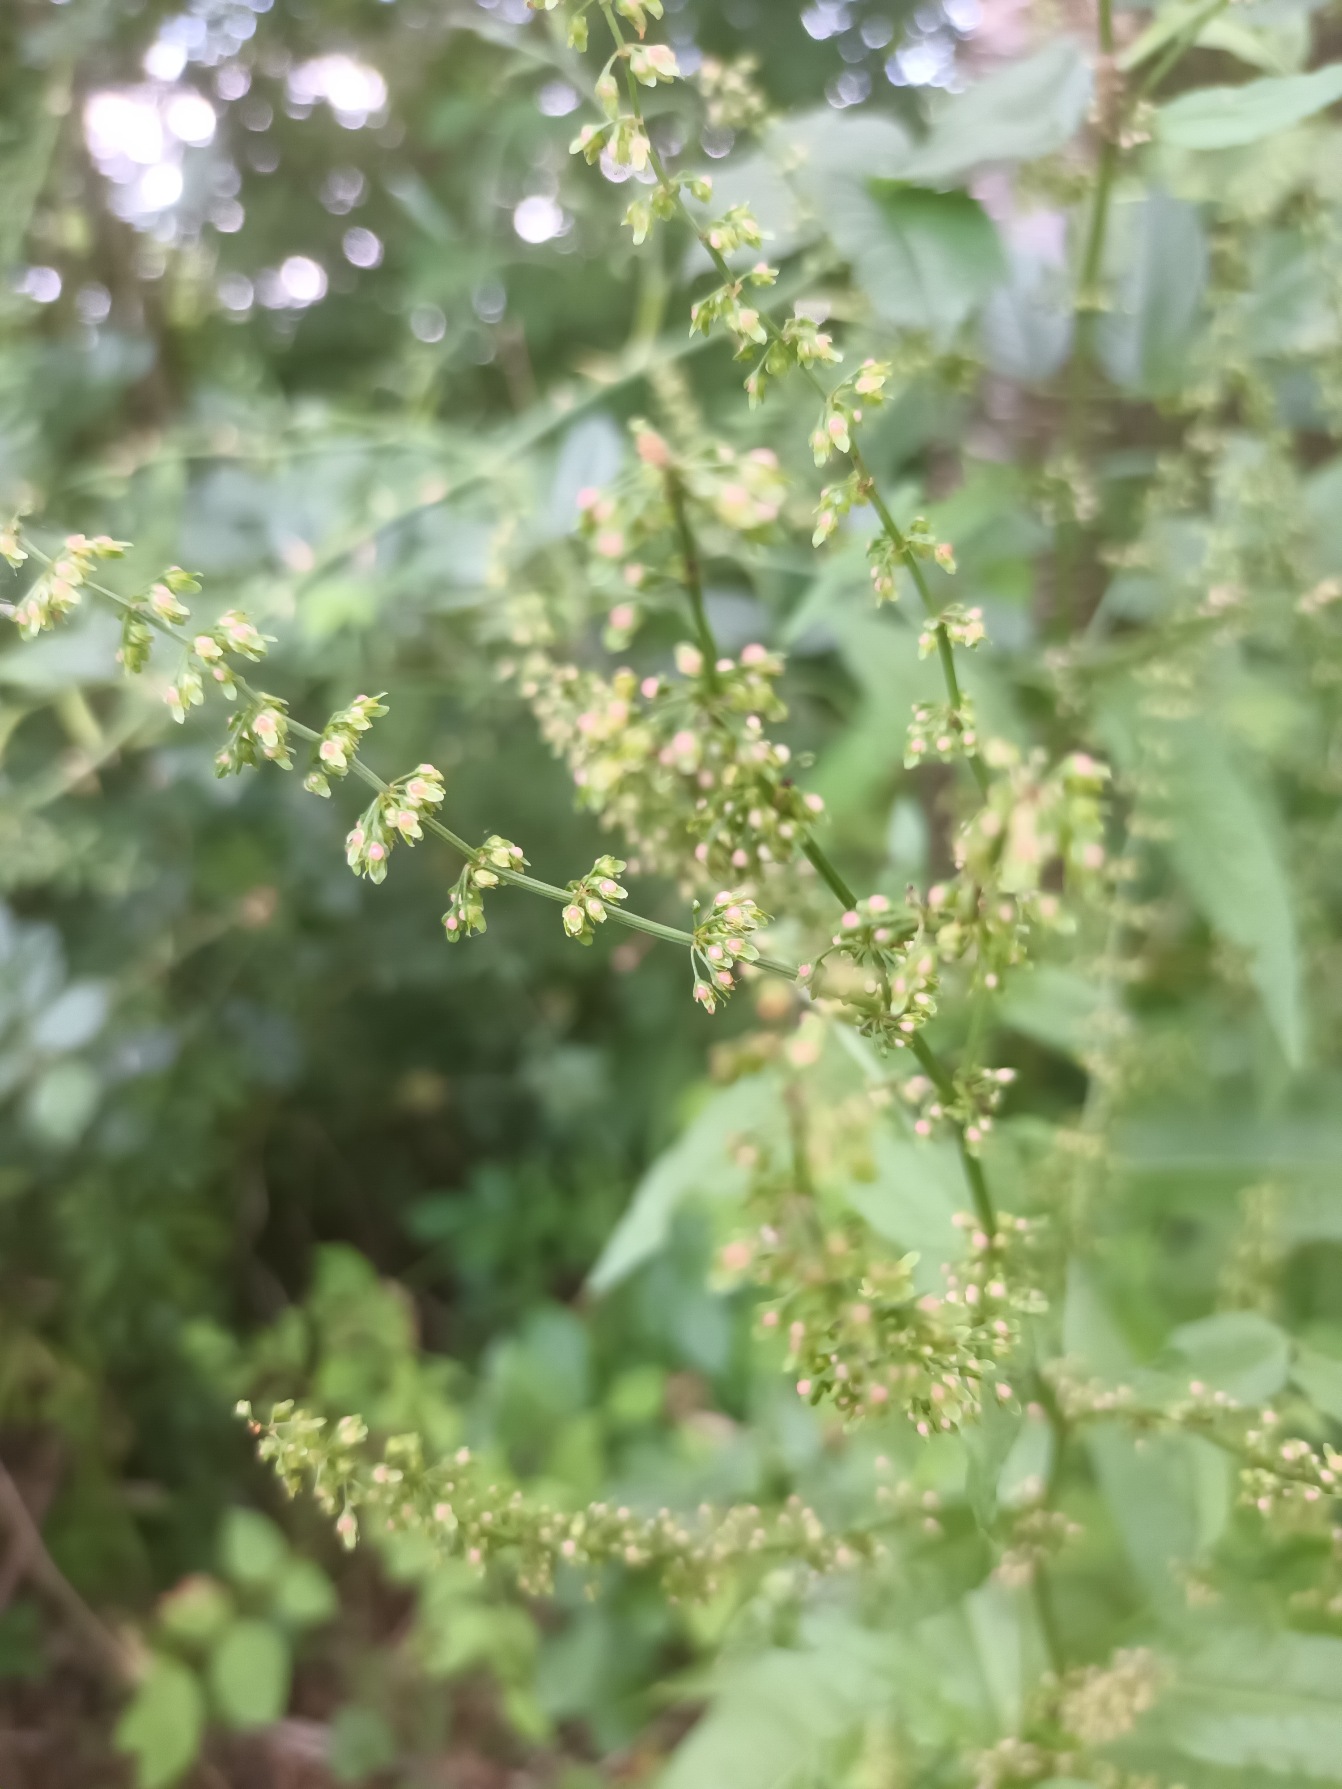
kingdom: Plantae
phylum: Tracheophyta
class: Magnoliopsida
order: Caryophyllales
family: Polygonaceae
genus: Rumex
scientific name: Rumex sanguineus
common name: Skov-skræppe
